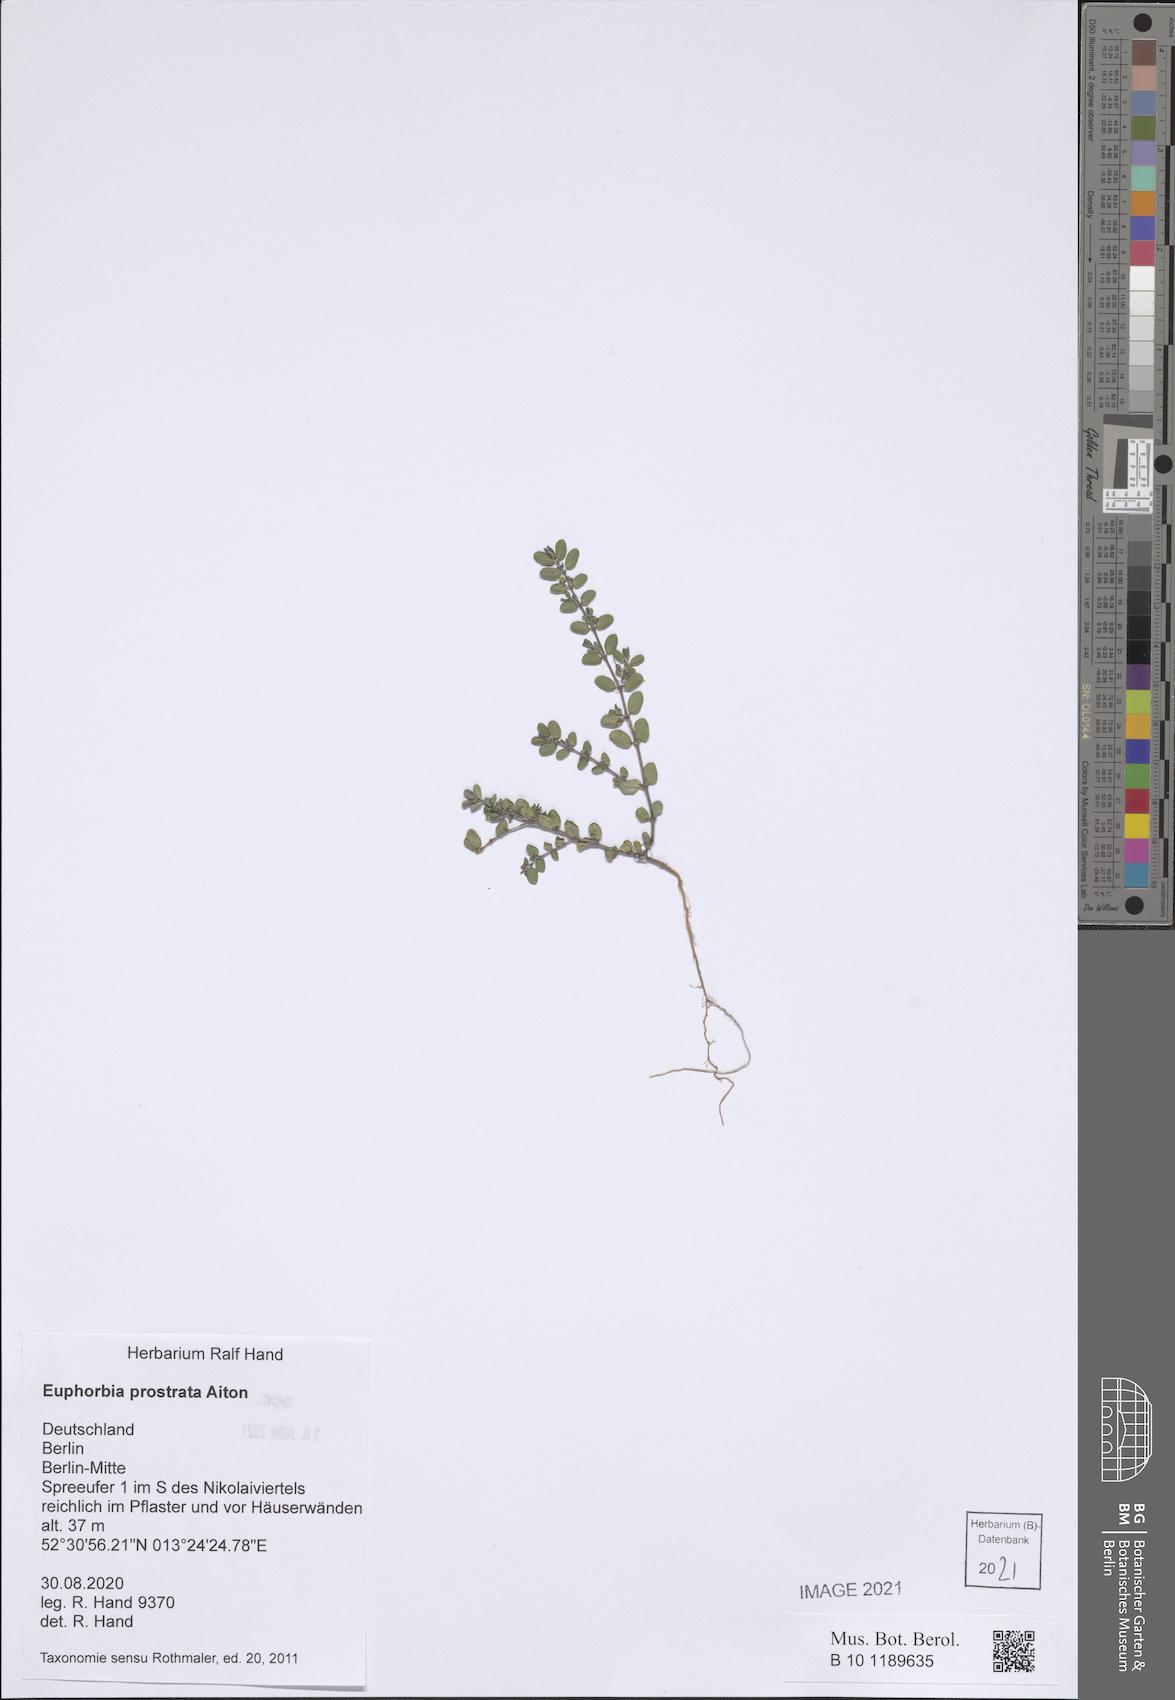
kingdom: Plantae
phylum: Tracheophyta
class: Magnoliopsida
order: Malpighiales
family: Euphorbiaceae
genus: Euphorbia
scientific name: Euphorbia prostrata
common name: Prostrate sandmat
